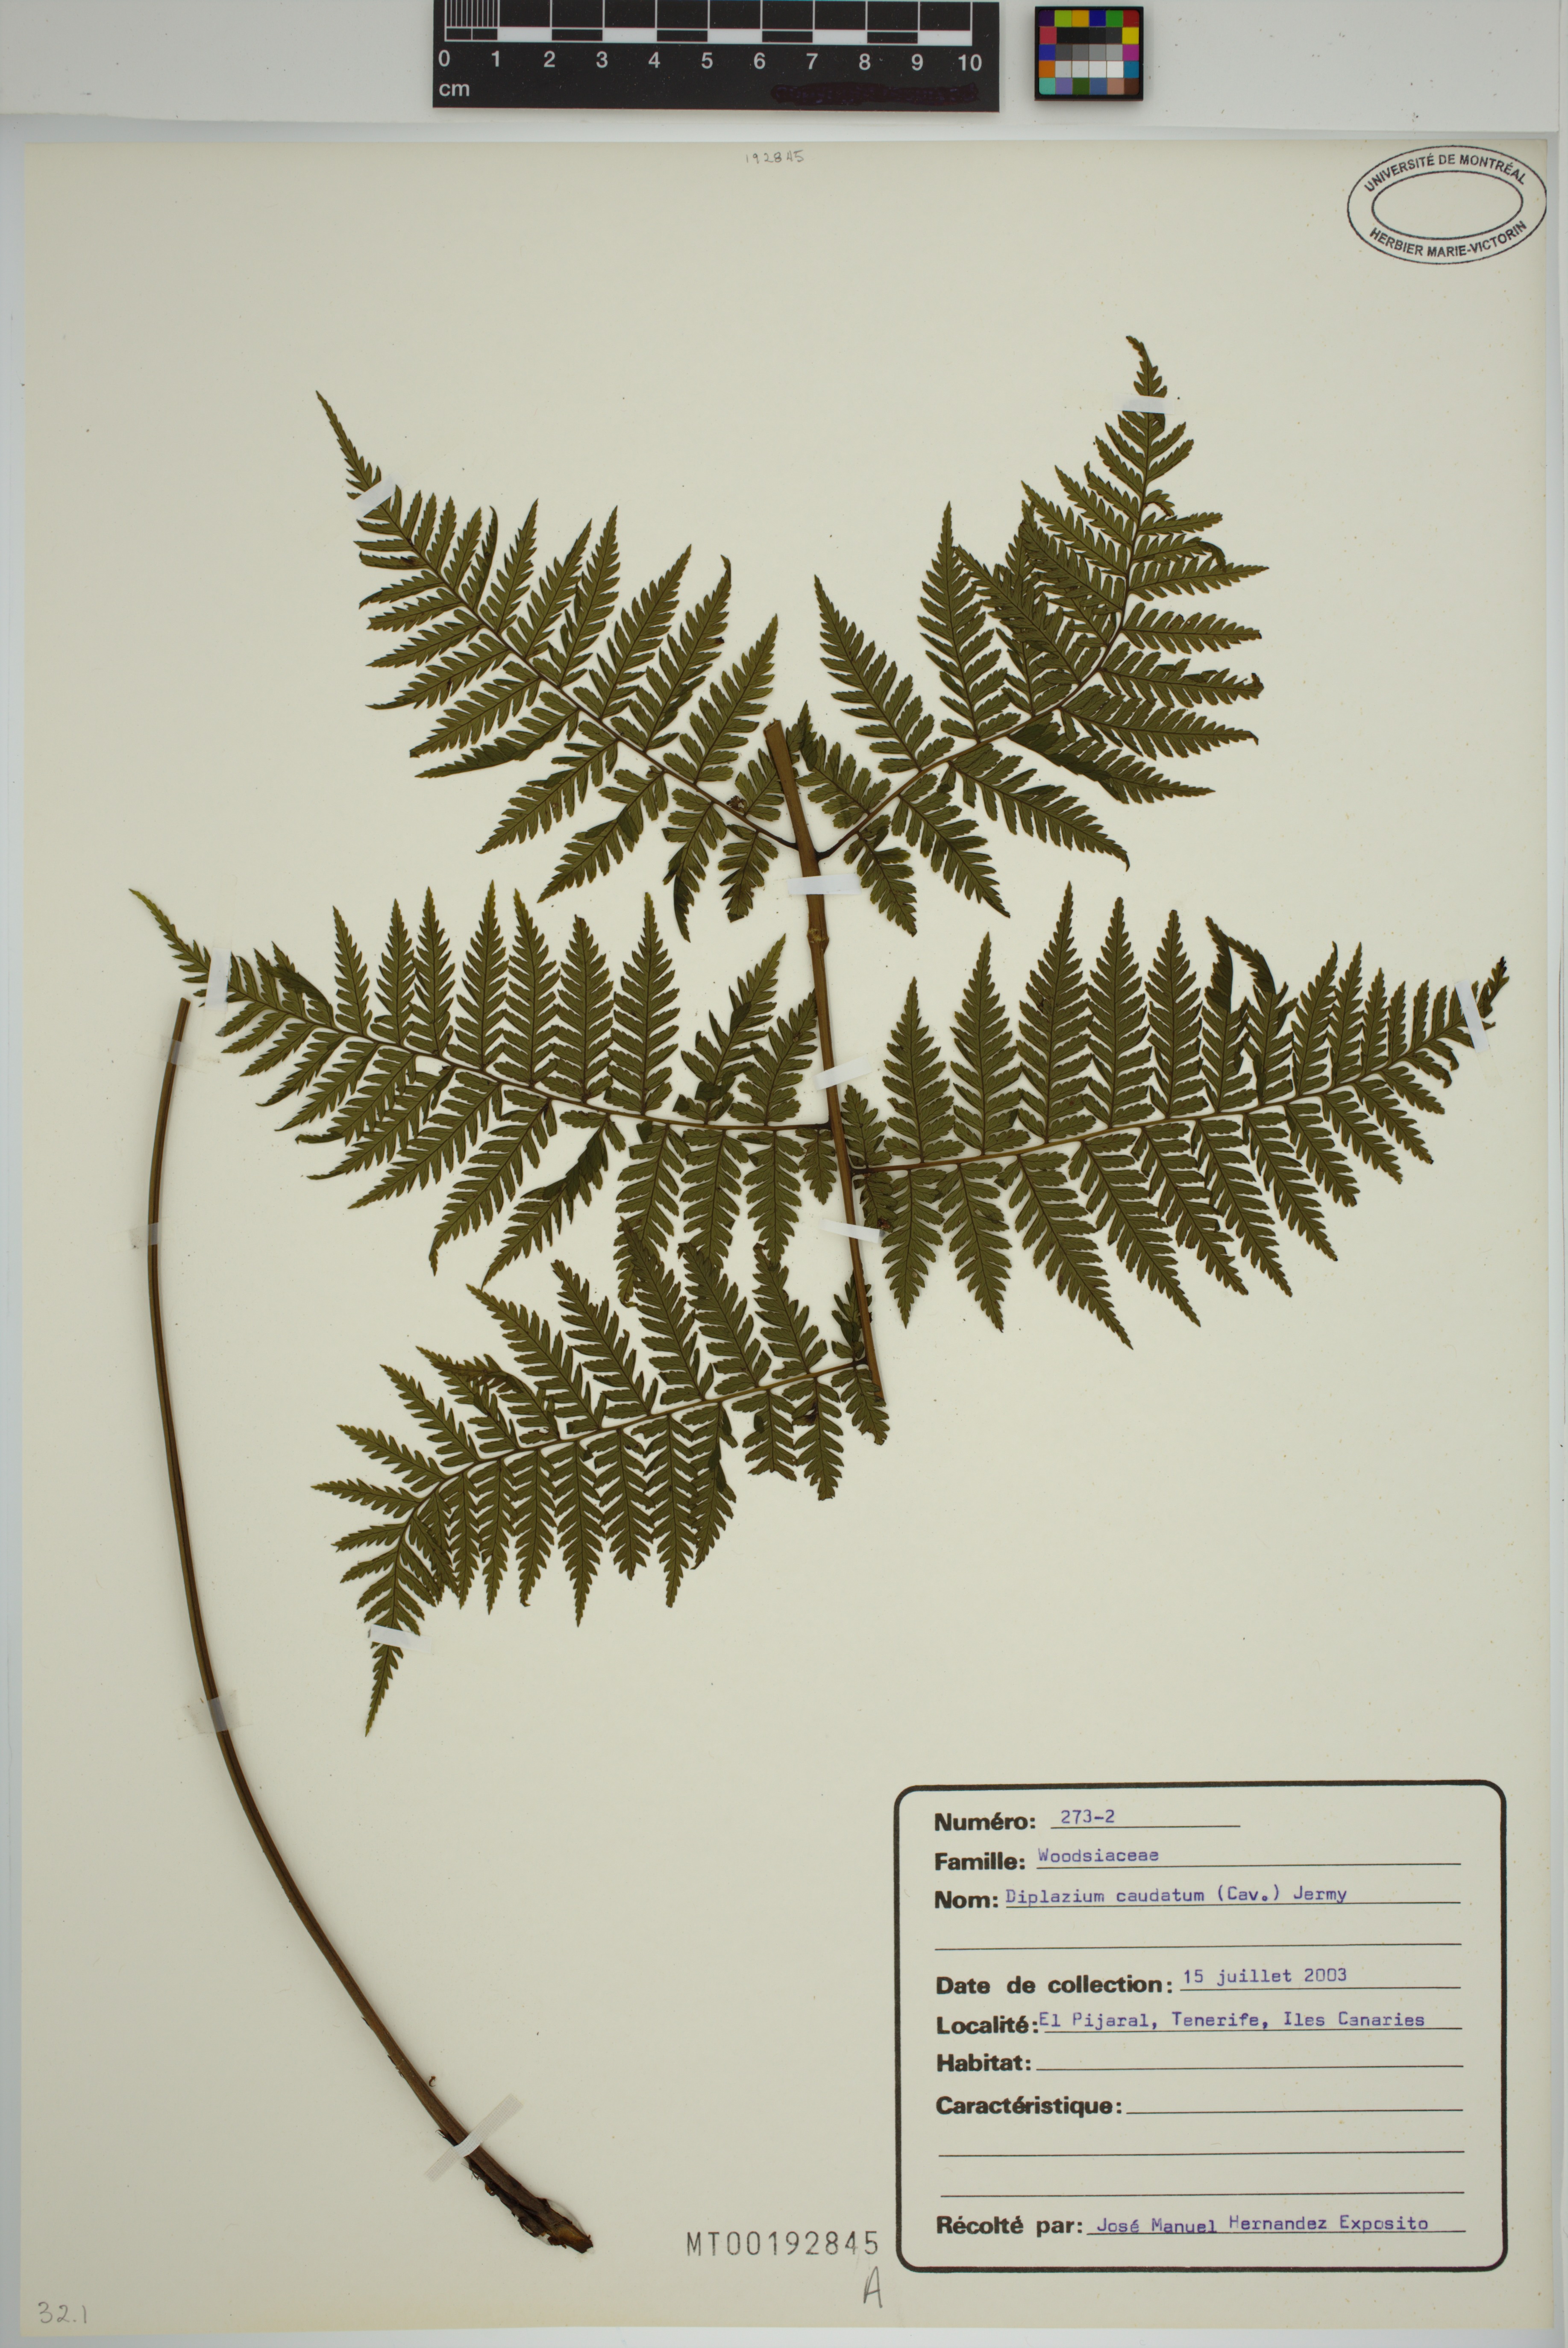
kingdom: Plantae
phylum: Tracheophyta
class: Polypodiopsida
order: Polypodiales
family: Athyriaceae
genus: Diplazium
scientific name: Diplazium caudatum
